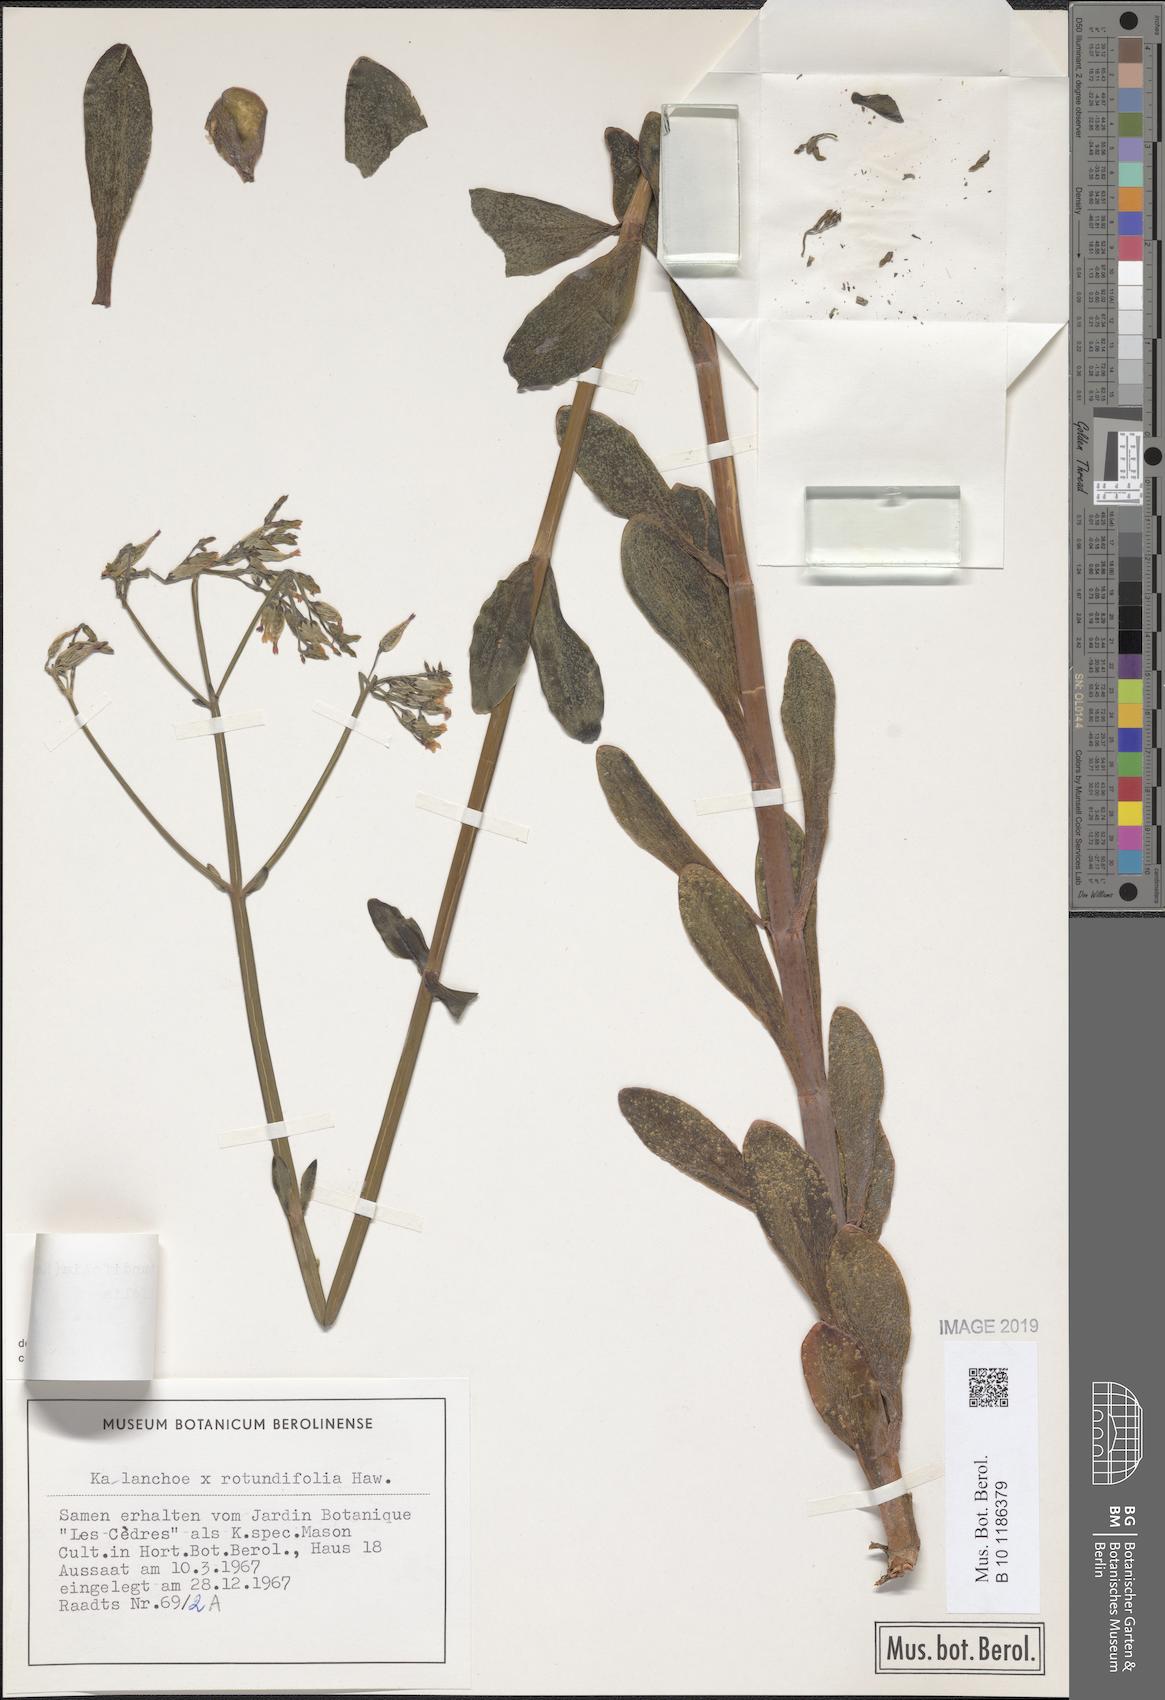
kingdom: Plantae
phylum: Tracheophyta
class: Magnoliopsida
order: Saxifragales
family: Crassulaceae
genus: Kalanchoe
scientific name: Kalanchoe rotundifolia
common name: Common kalanchoe
